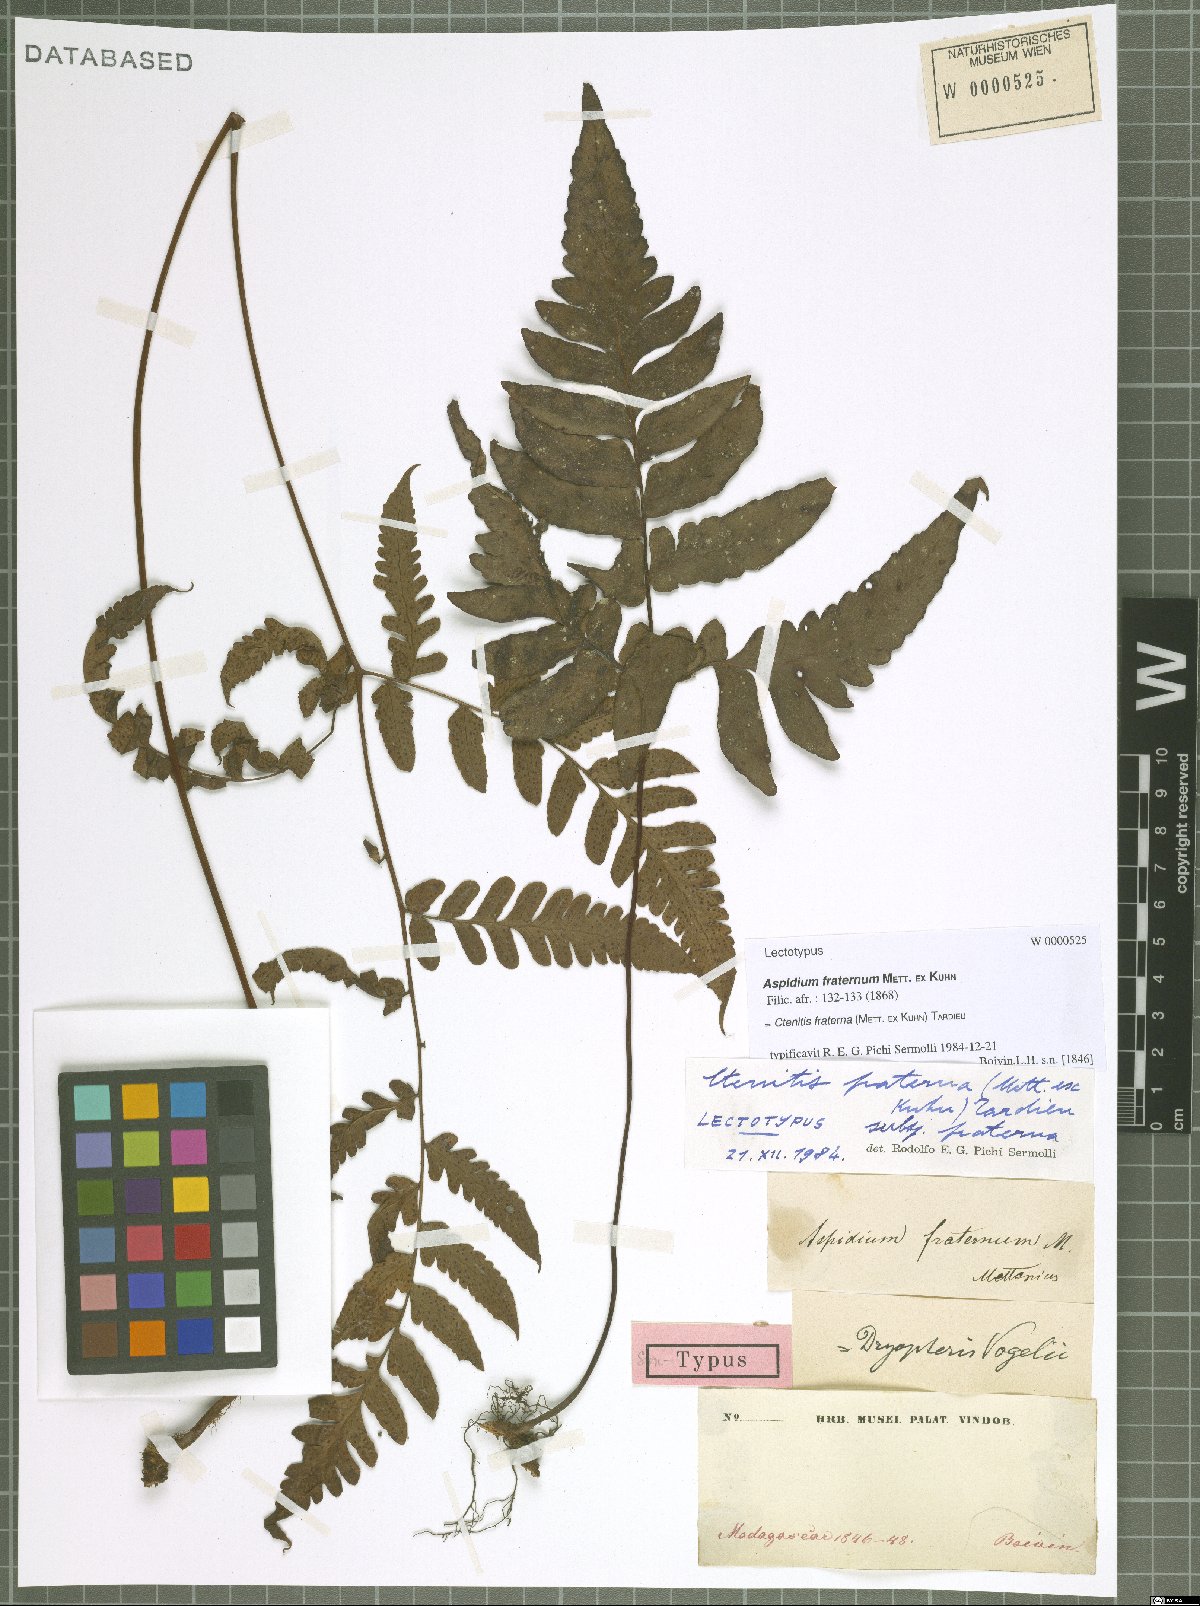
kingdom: Plantae
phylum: Tracheophyta
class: Polypodiopsida
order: Polypodiales
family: Tectariaceae
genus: Triplophyllum
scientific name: Triplophyllum fraternum
